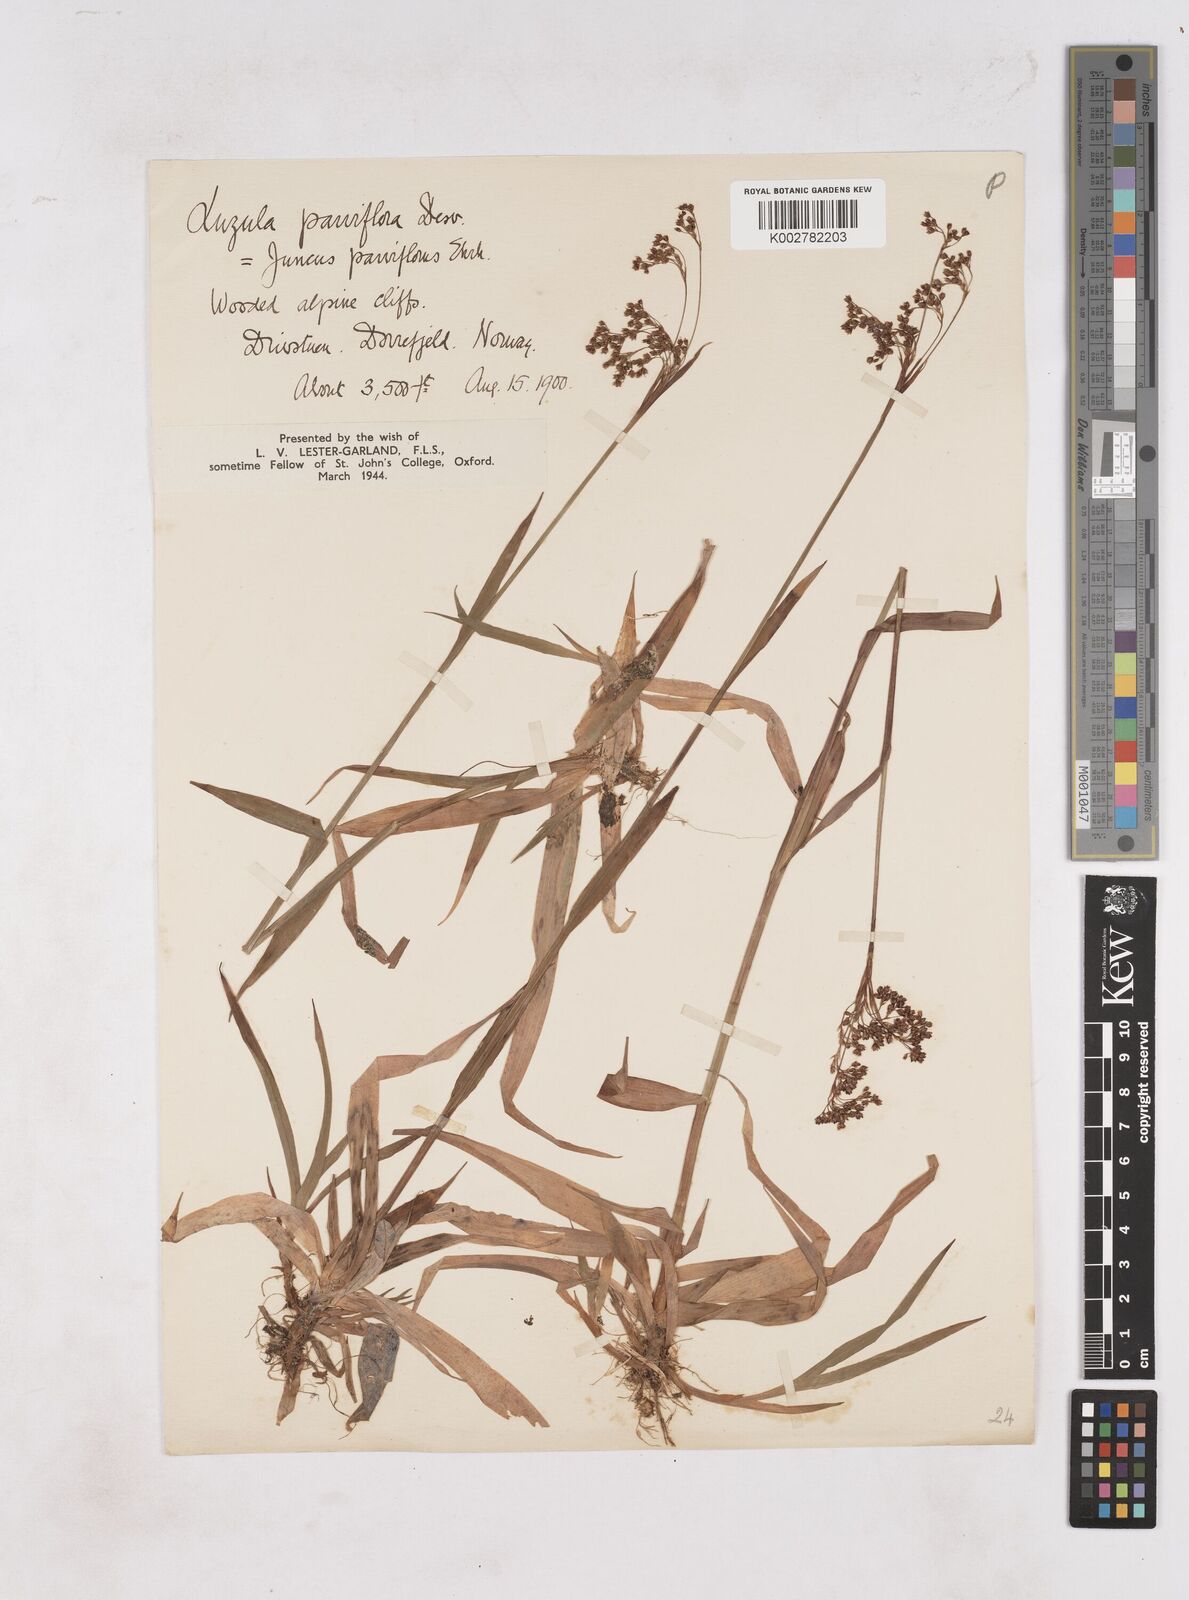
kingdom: Plantae
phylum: Tracheophyta
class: Liliopsida
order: Poales
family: Juncaceae
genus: Luzula
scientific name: Luzula parviflora
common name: Millet woodrush
